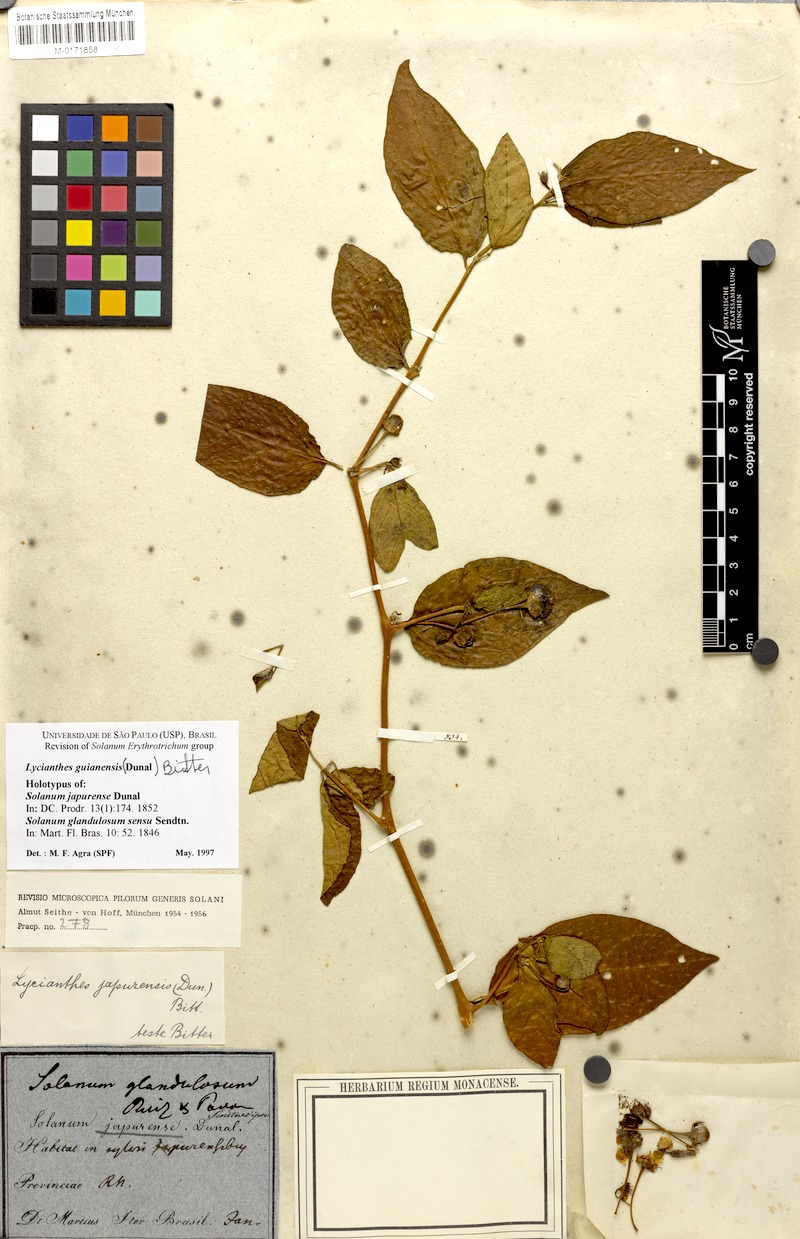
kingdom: Plantae
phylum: Tracheophyta
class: Magnoliopsida
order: Solanales
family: Solanaceae
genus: Lycianthes
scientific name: Lycianthes pauciflora
